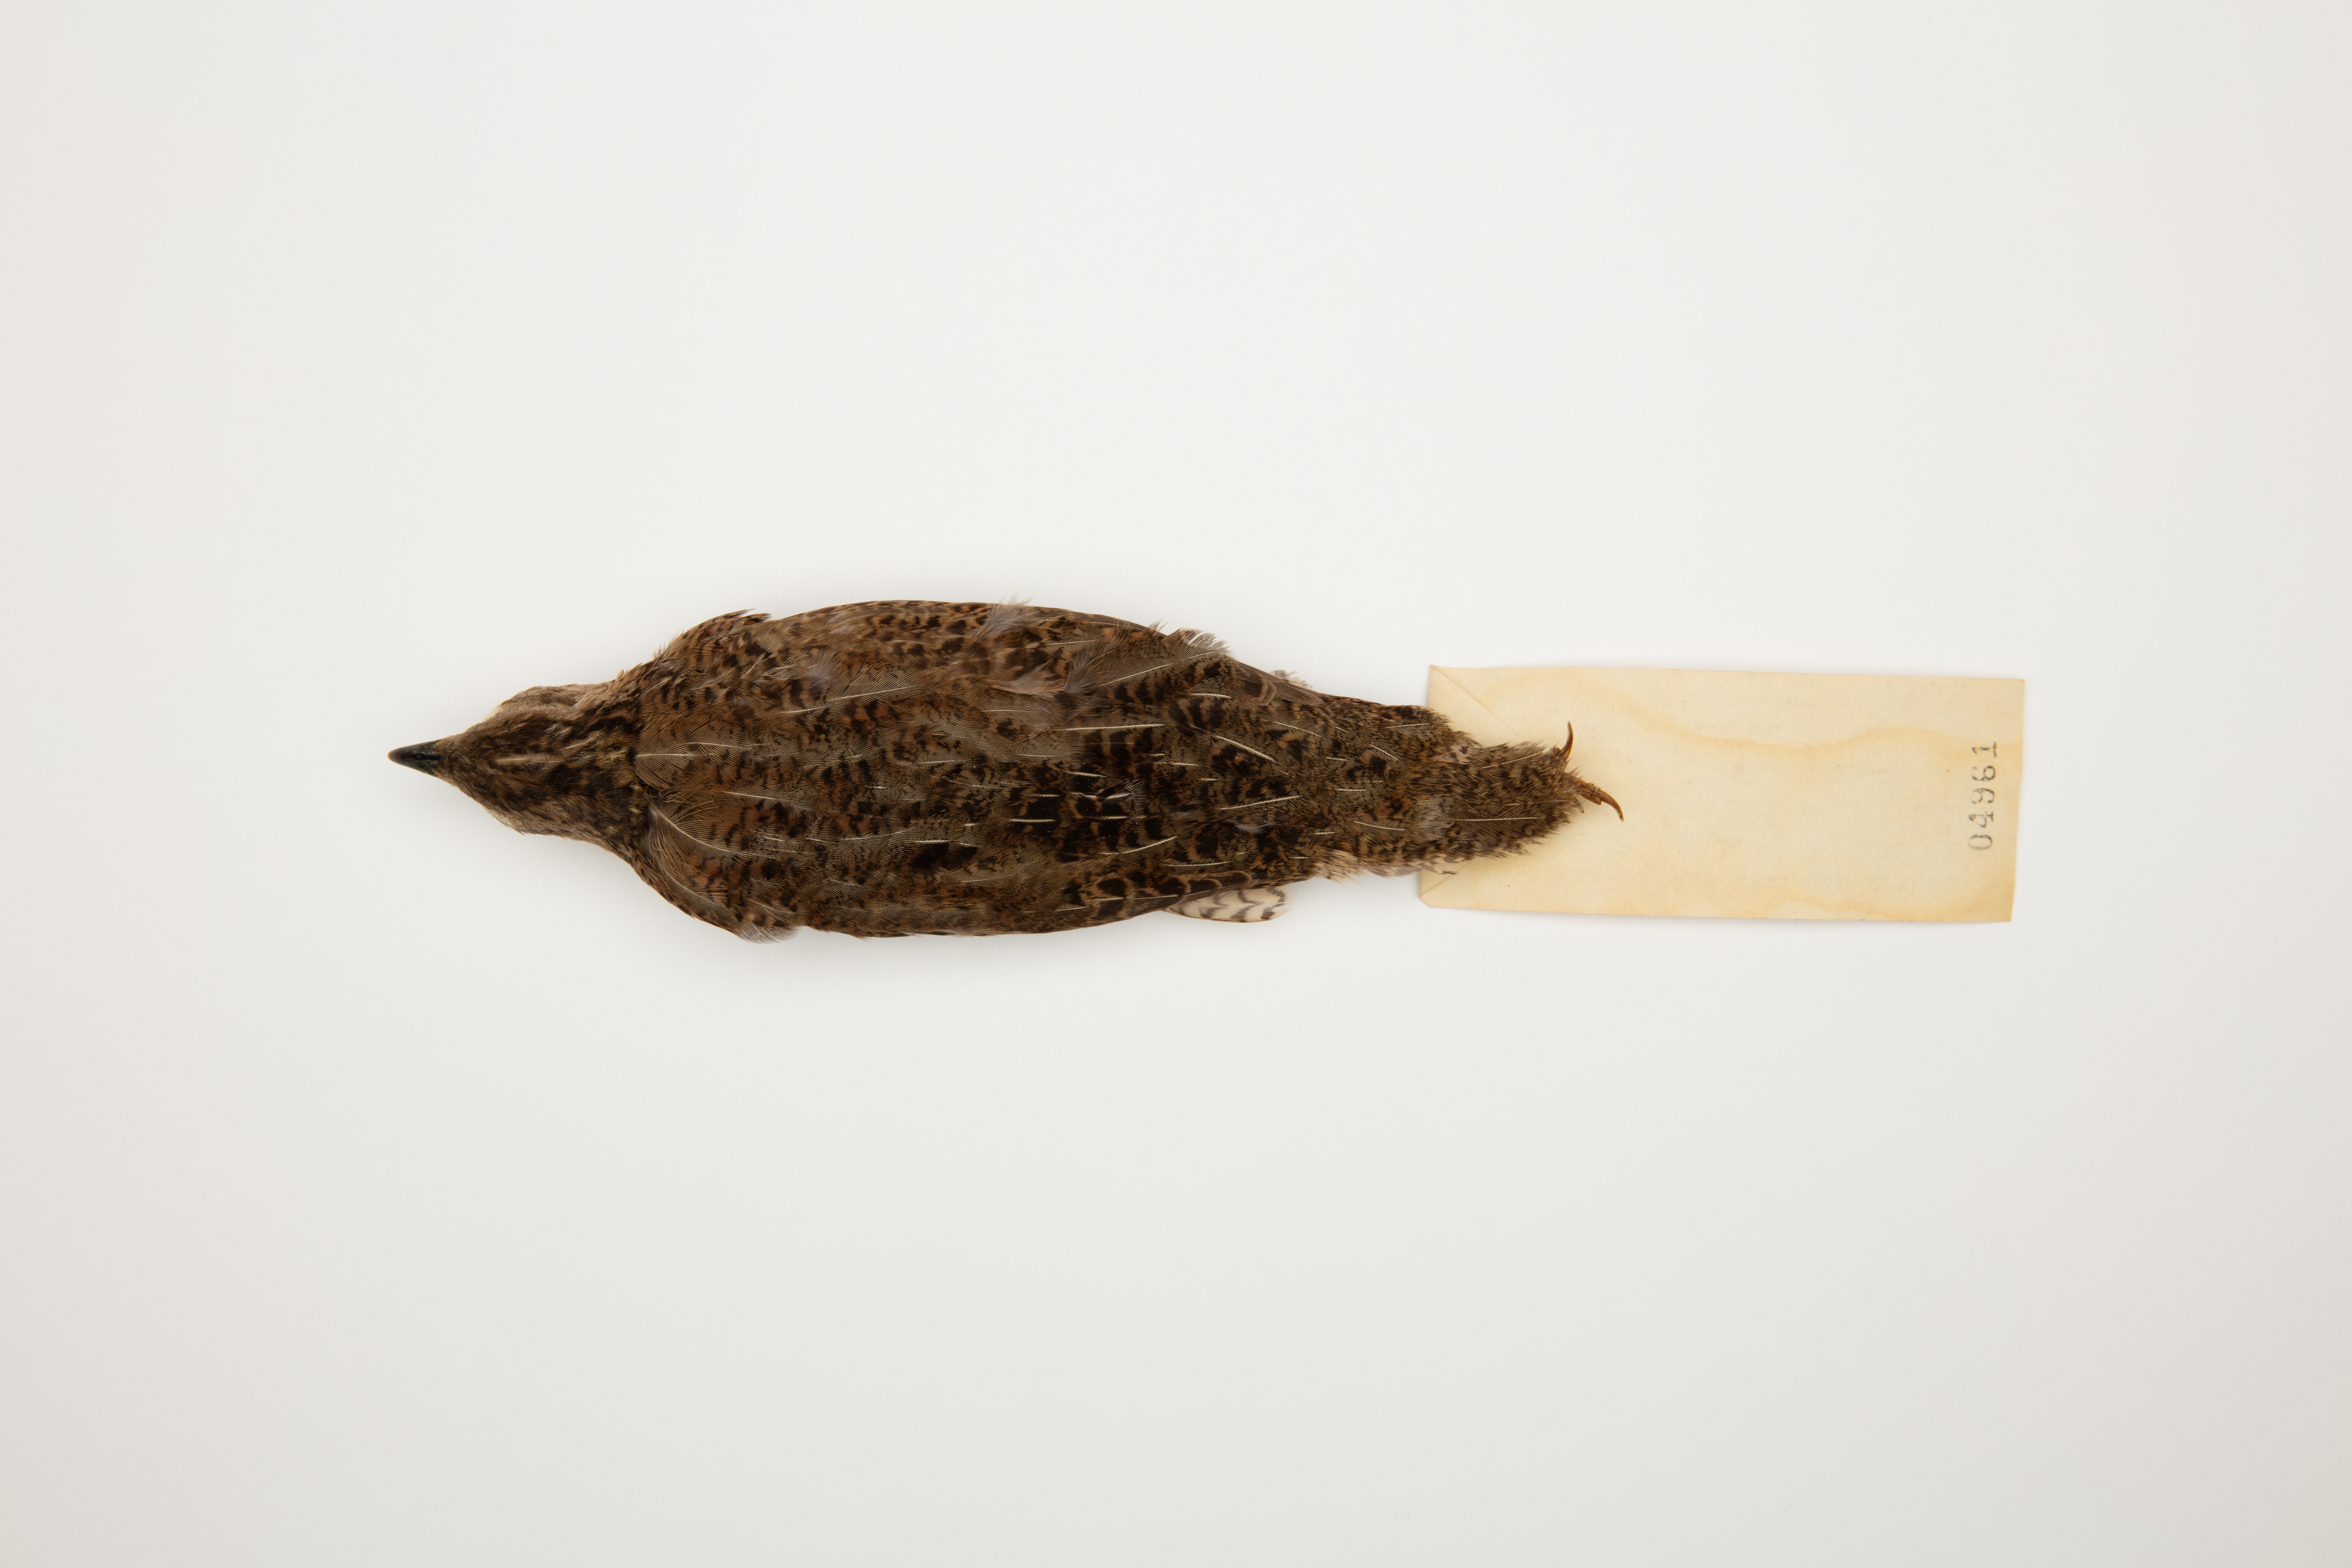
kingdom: Animalia
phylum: Chordata
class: Aves
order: Galliformes
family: Phasianidae
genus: Synoicus
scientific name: Synoicus ypsilophorus
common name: Brown quail
